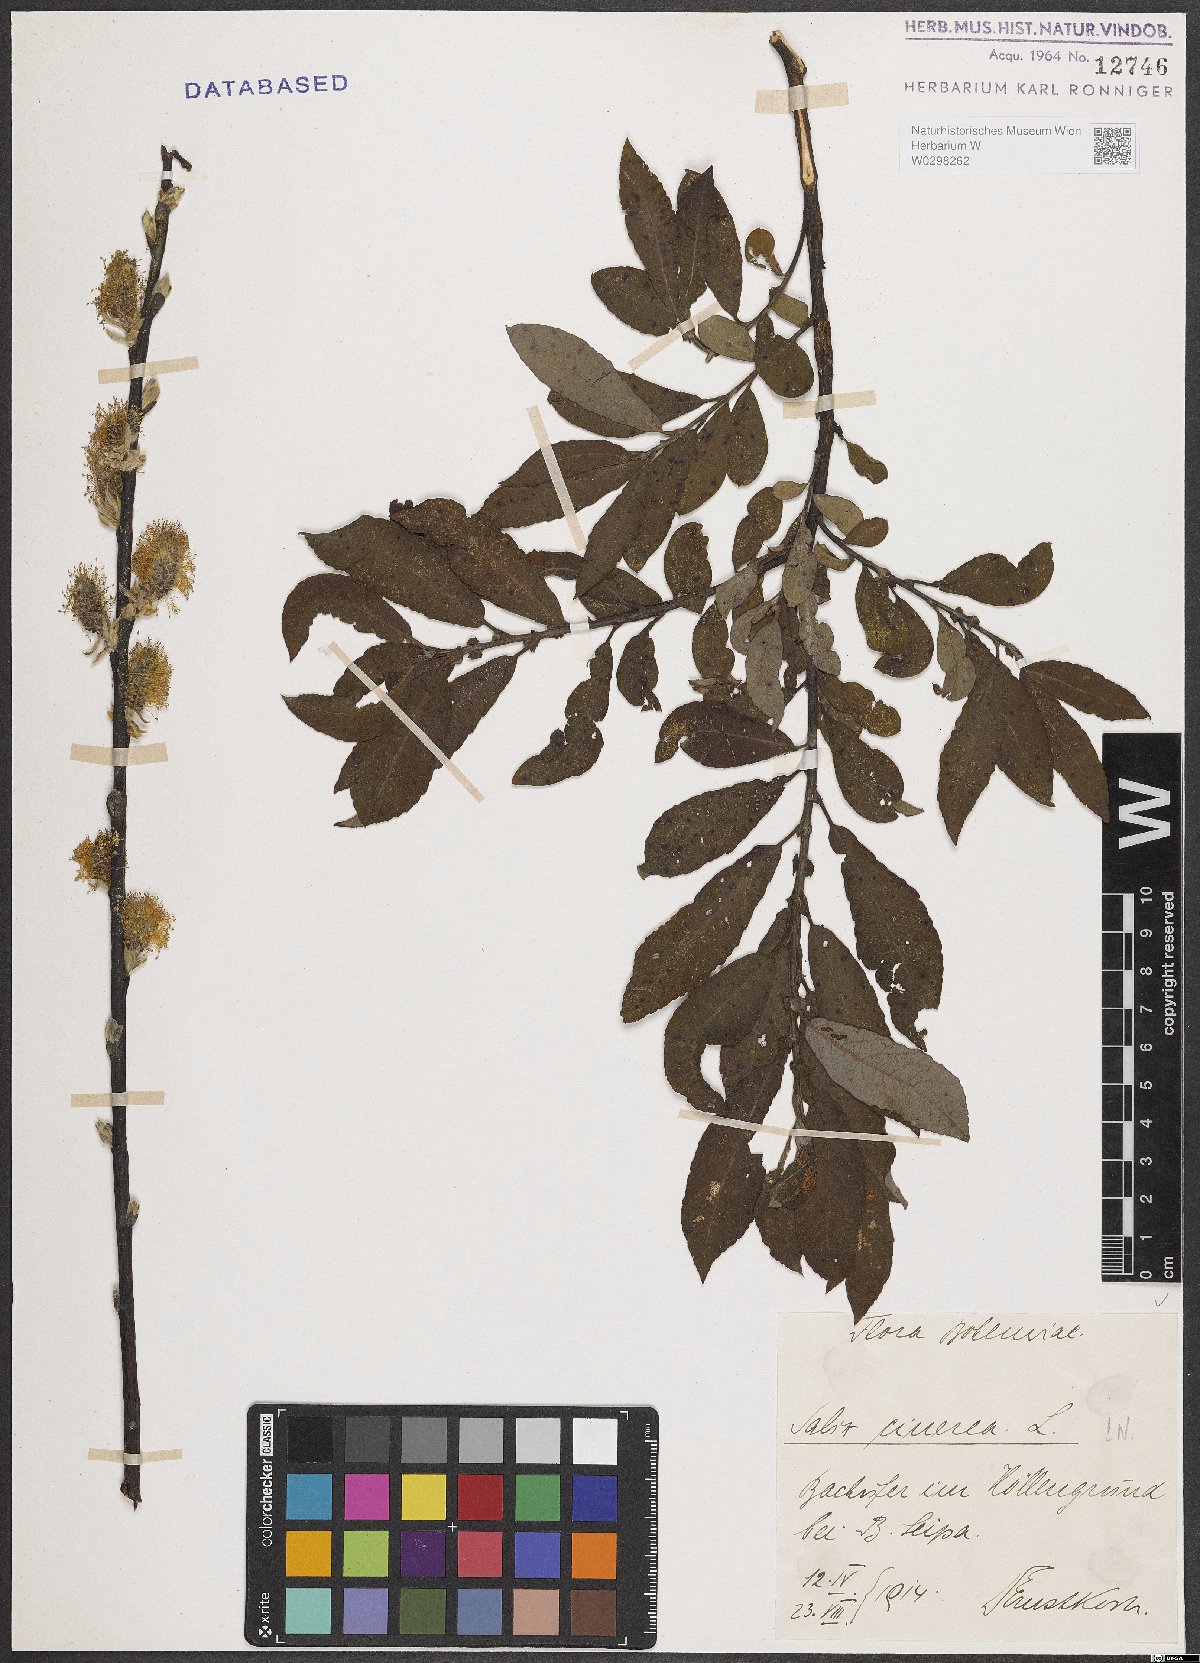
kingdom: Plantae
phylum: Tracheophyta
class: Magnoliopsida
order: Malpighiales
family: Salicaceae
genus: Salix
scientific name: Salix cinerea
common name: Common sallow
